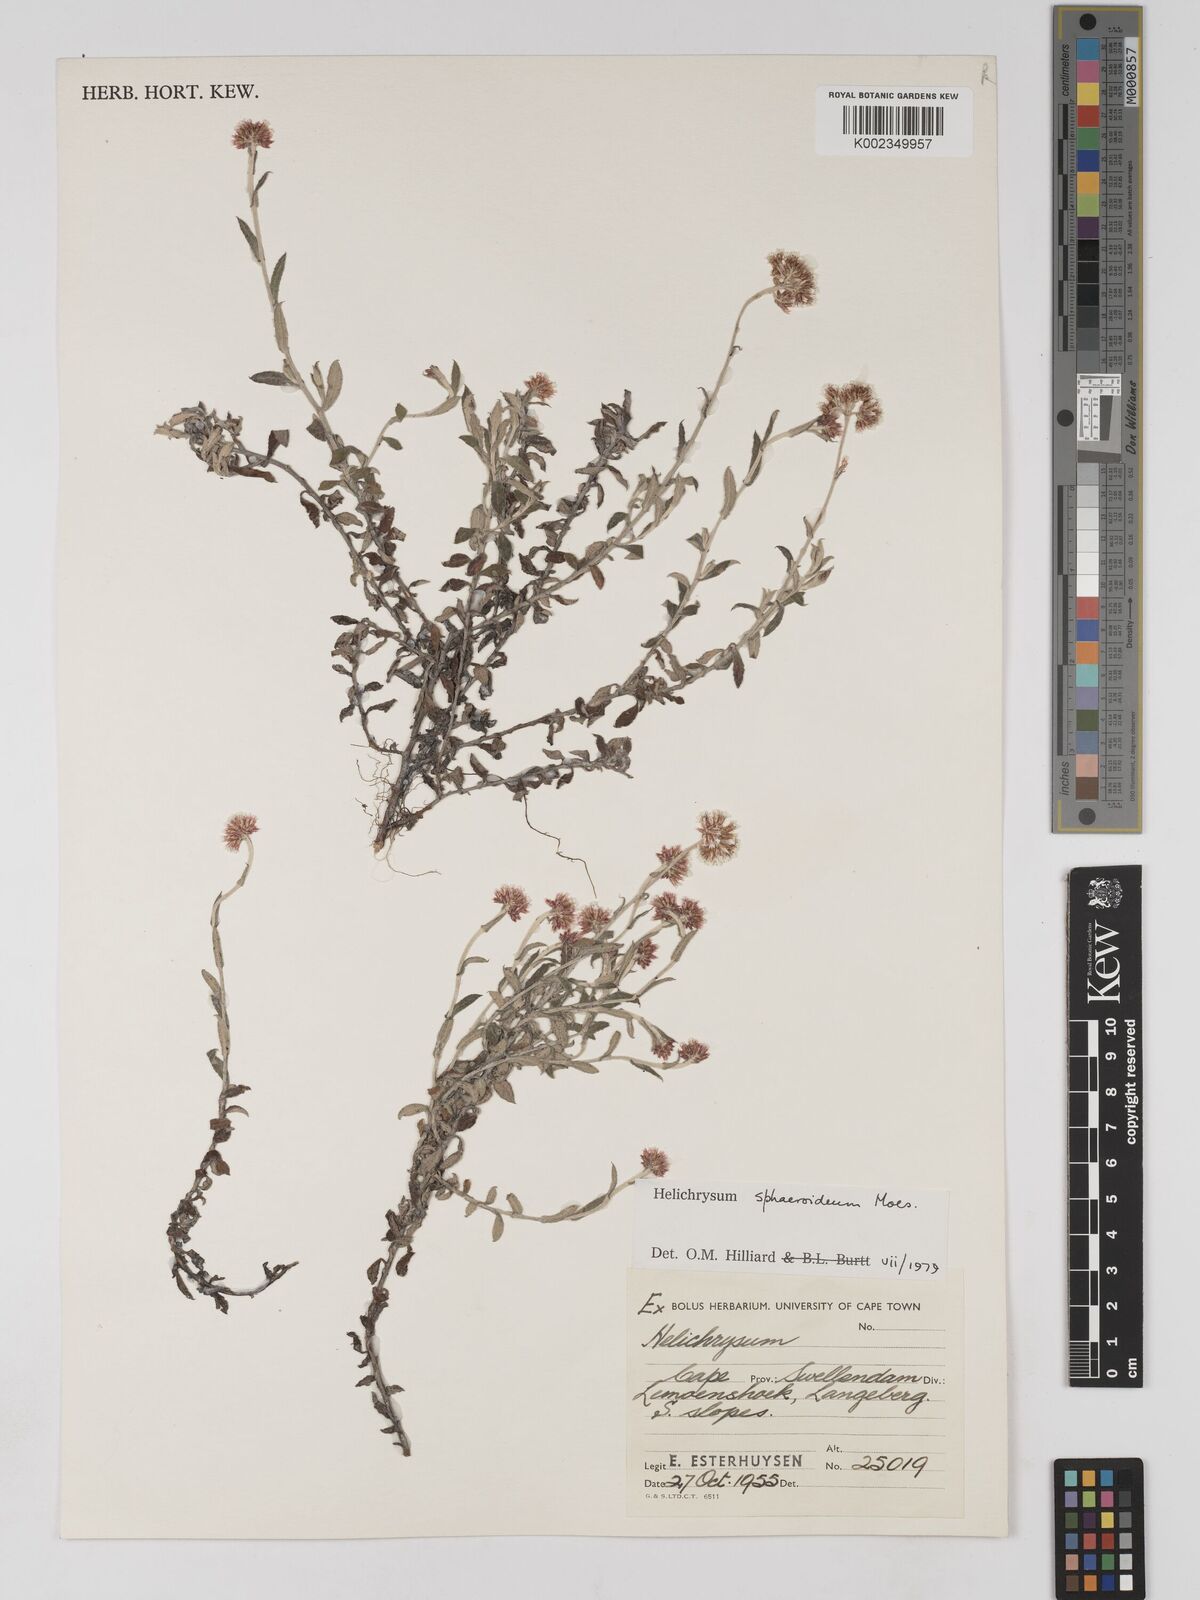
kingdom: Plantae
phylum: Tracheophyta
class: Magnoliopsida
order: Asterales
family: Asteraceae
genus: Helichrysum
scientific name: Helichrysum sphaeroideum
